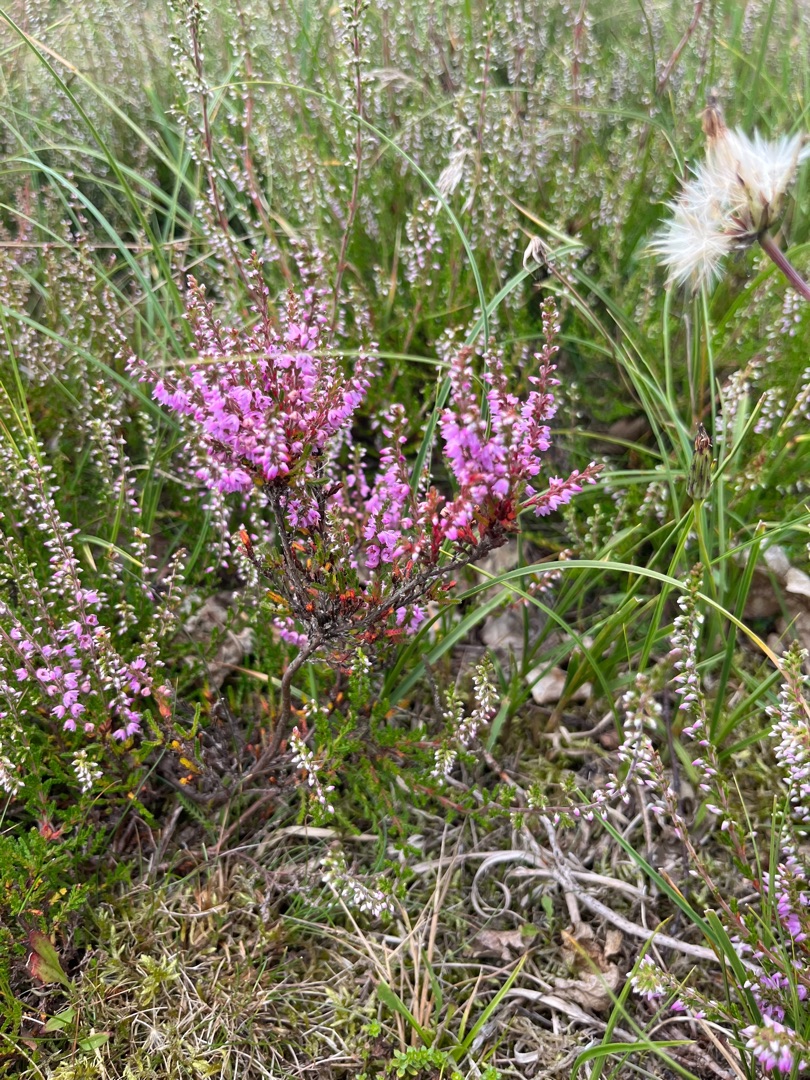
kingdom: Plantae
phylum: Tracheophyta
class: Magnoliopsida
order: Ericales
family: Ericaceae
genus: Calluna
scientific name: Calluna vulgaris
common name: Hedelyng
